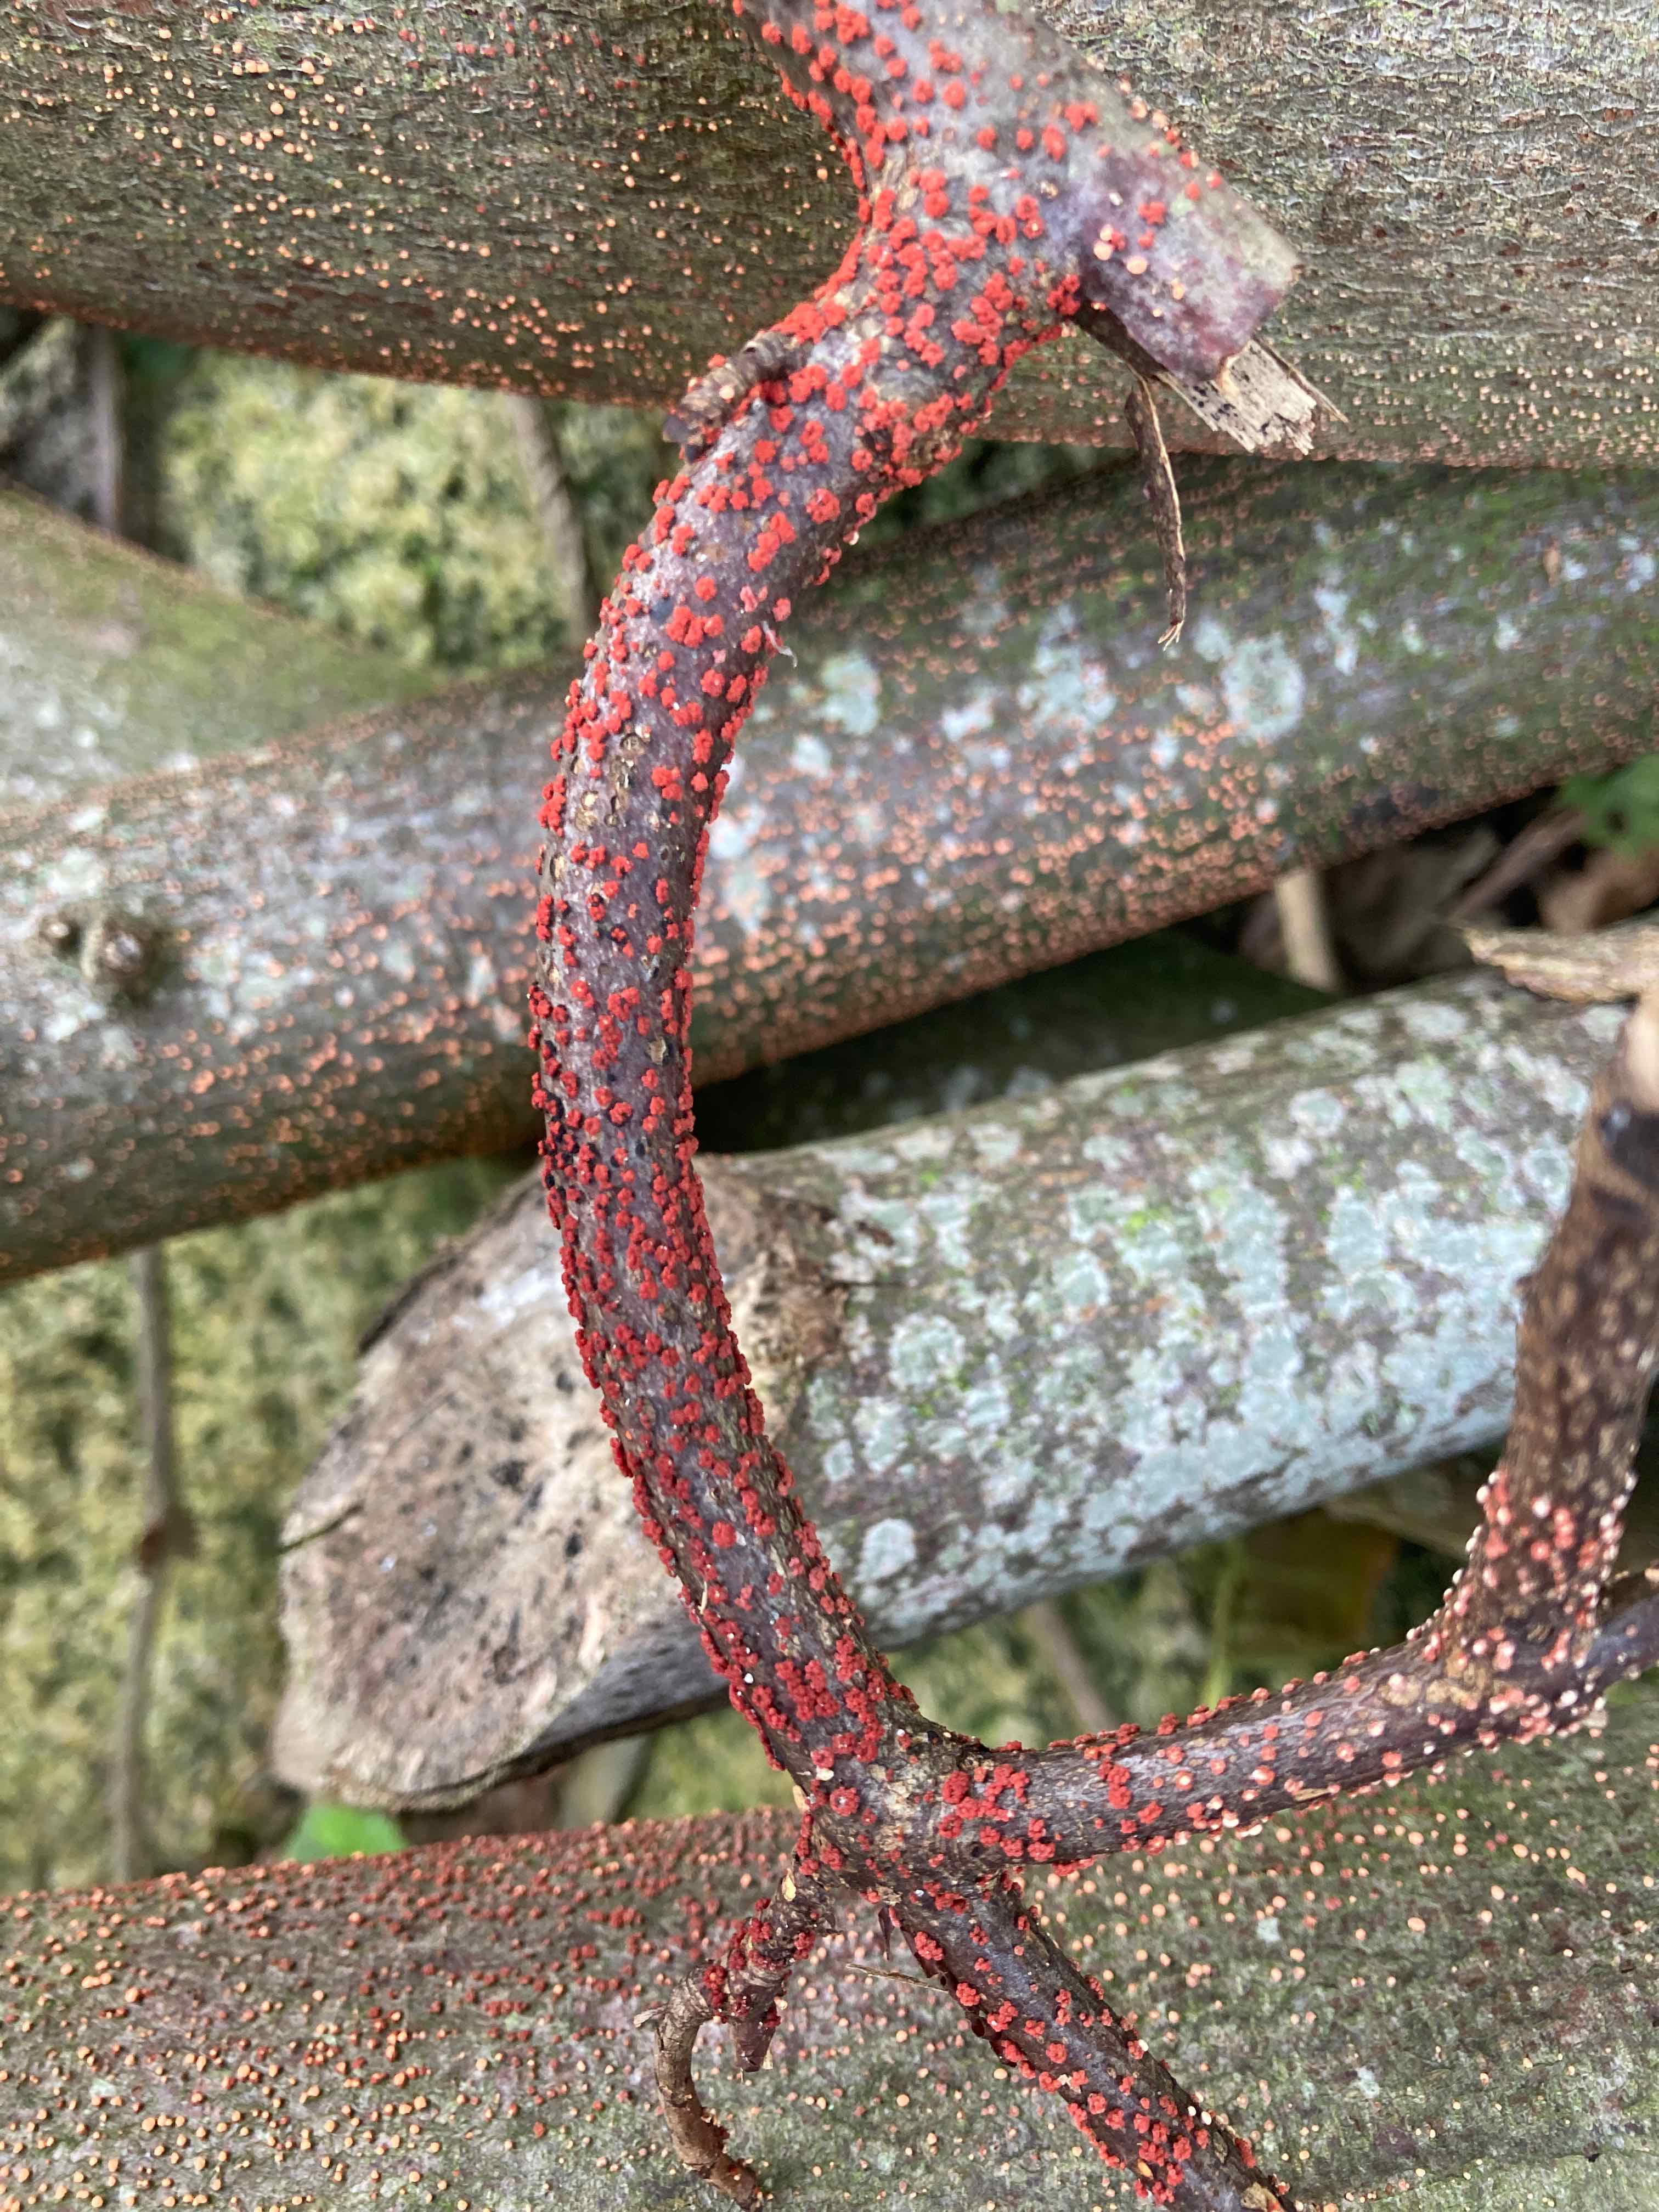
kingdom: Fungi
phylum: Ascomycota
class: Sordariomycetes
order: Hypocreales
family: Nectriaceae
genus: Nectria
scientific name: Nectria cinnabarina
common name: almindelig cinnobersvamp
